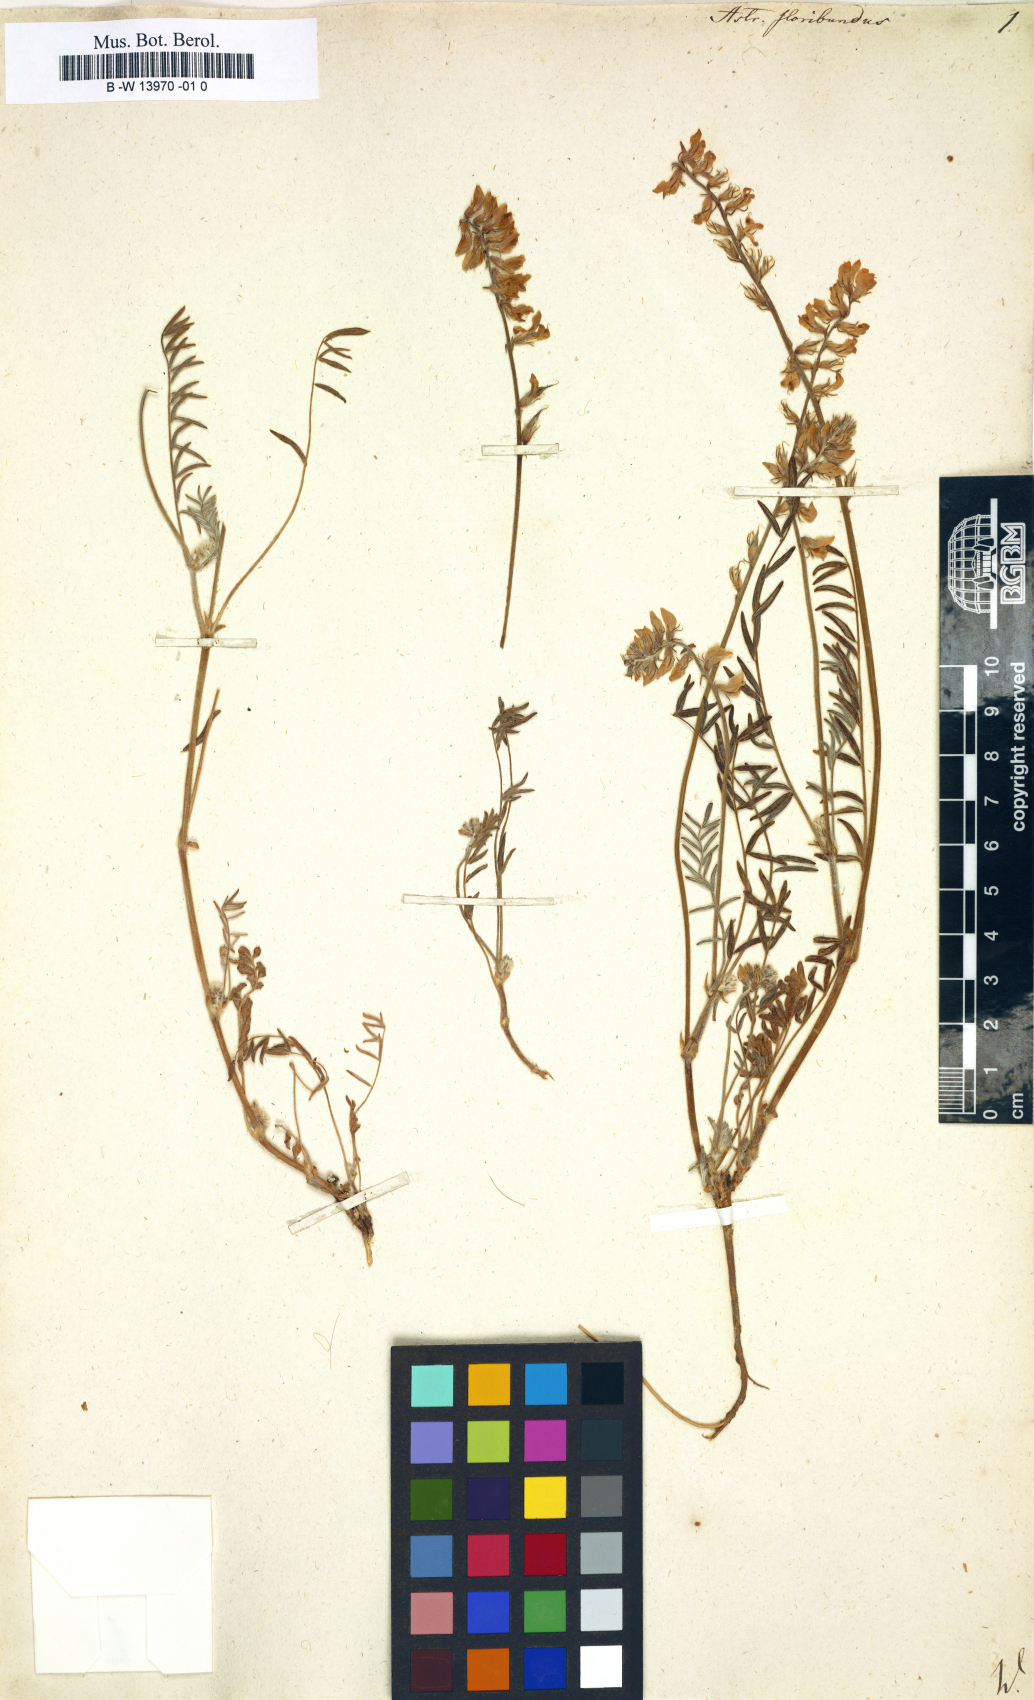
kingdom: Plantae
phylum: Tracheophyta
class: Magnoliopsida
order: Fabales
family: Fabaceae
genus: Oxytropis
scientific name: Oxytropis floribunda
